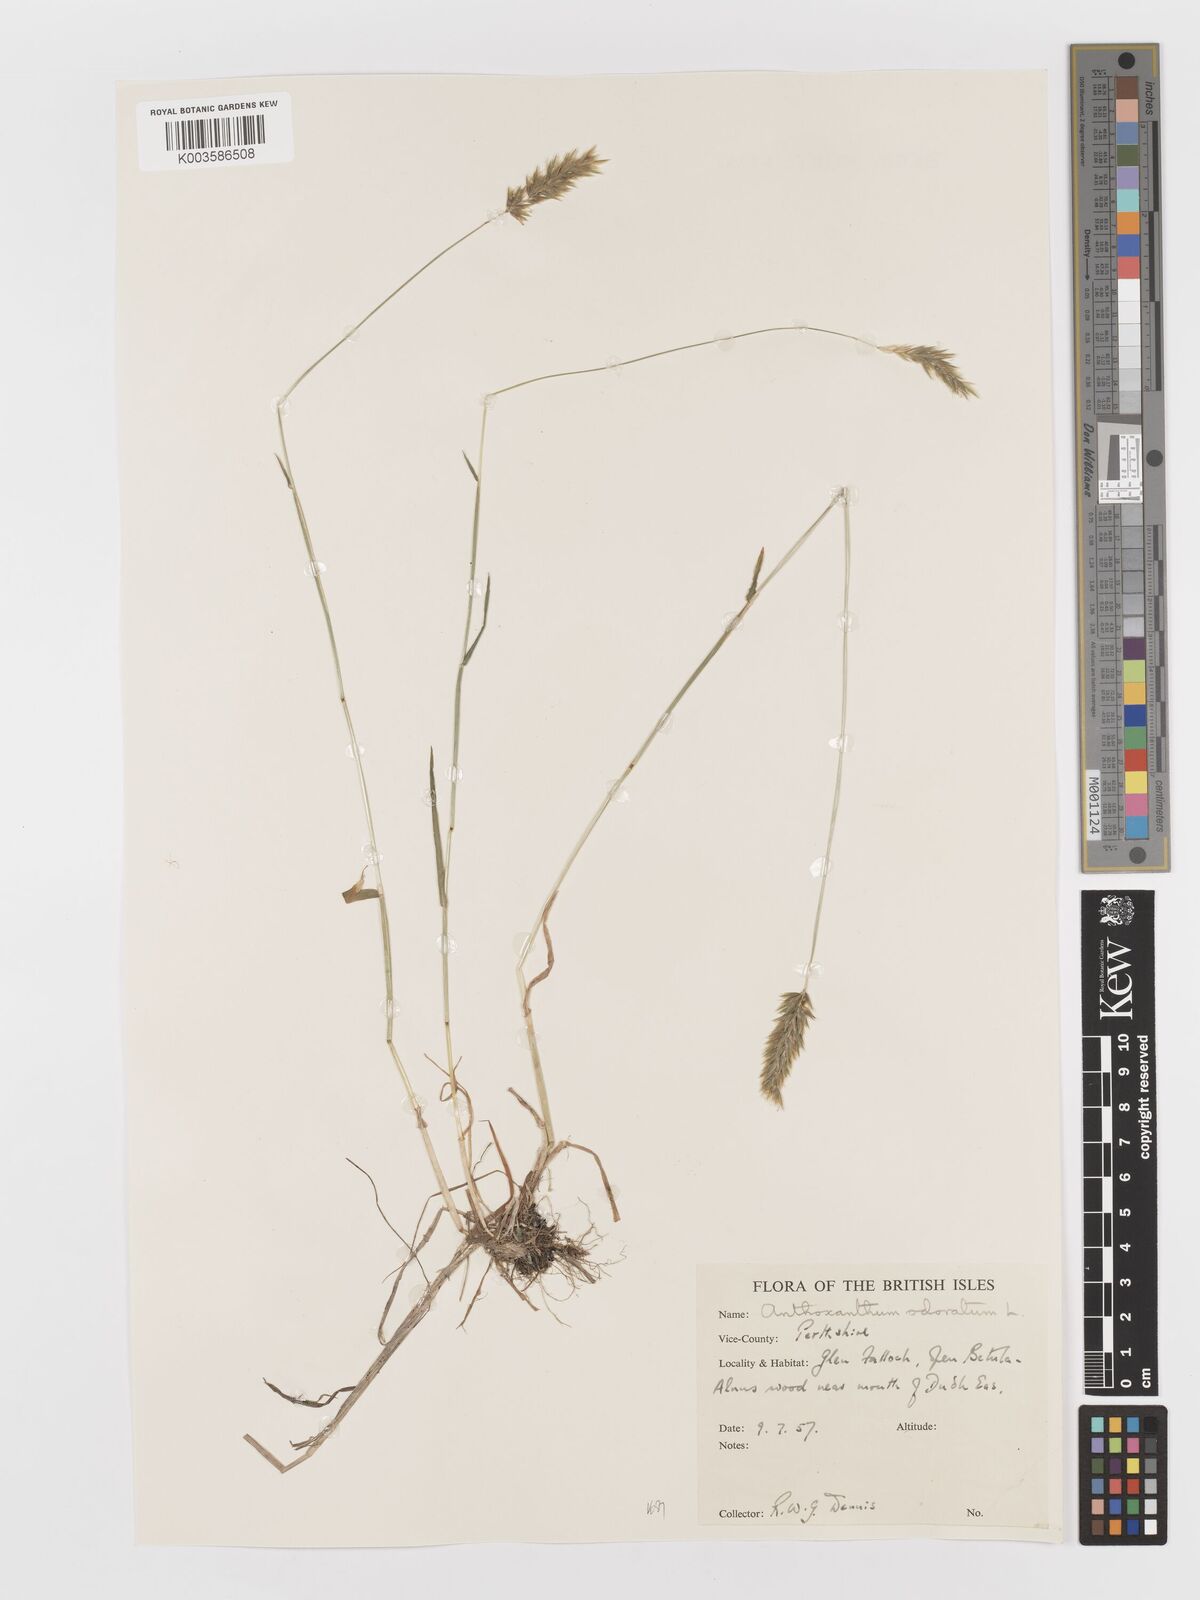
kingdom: Plantae
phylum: Tracheophyta
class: Liliopsida
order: Poales
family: Poaceae
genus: Anthoxanthum
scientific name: Anthoxanthum odoratum
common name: Sweet vernalgrass
